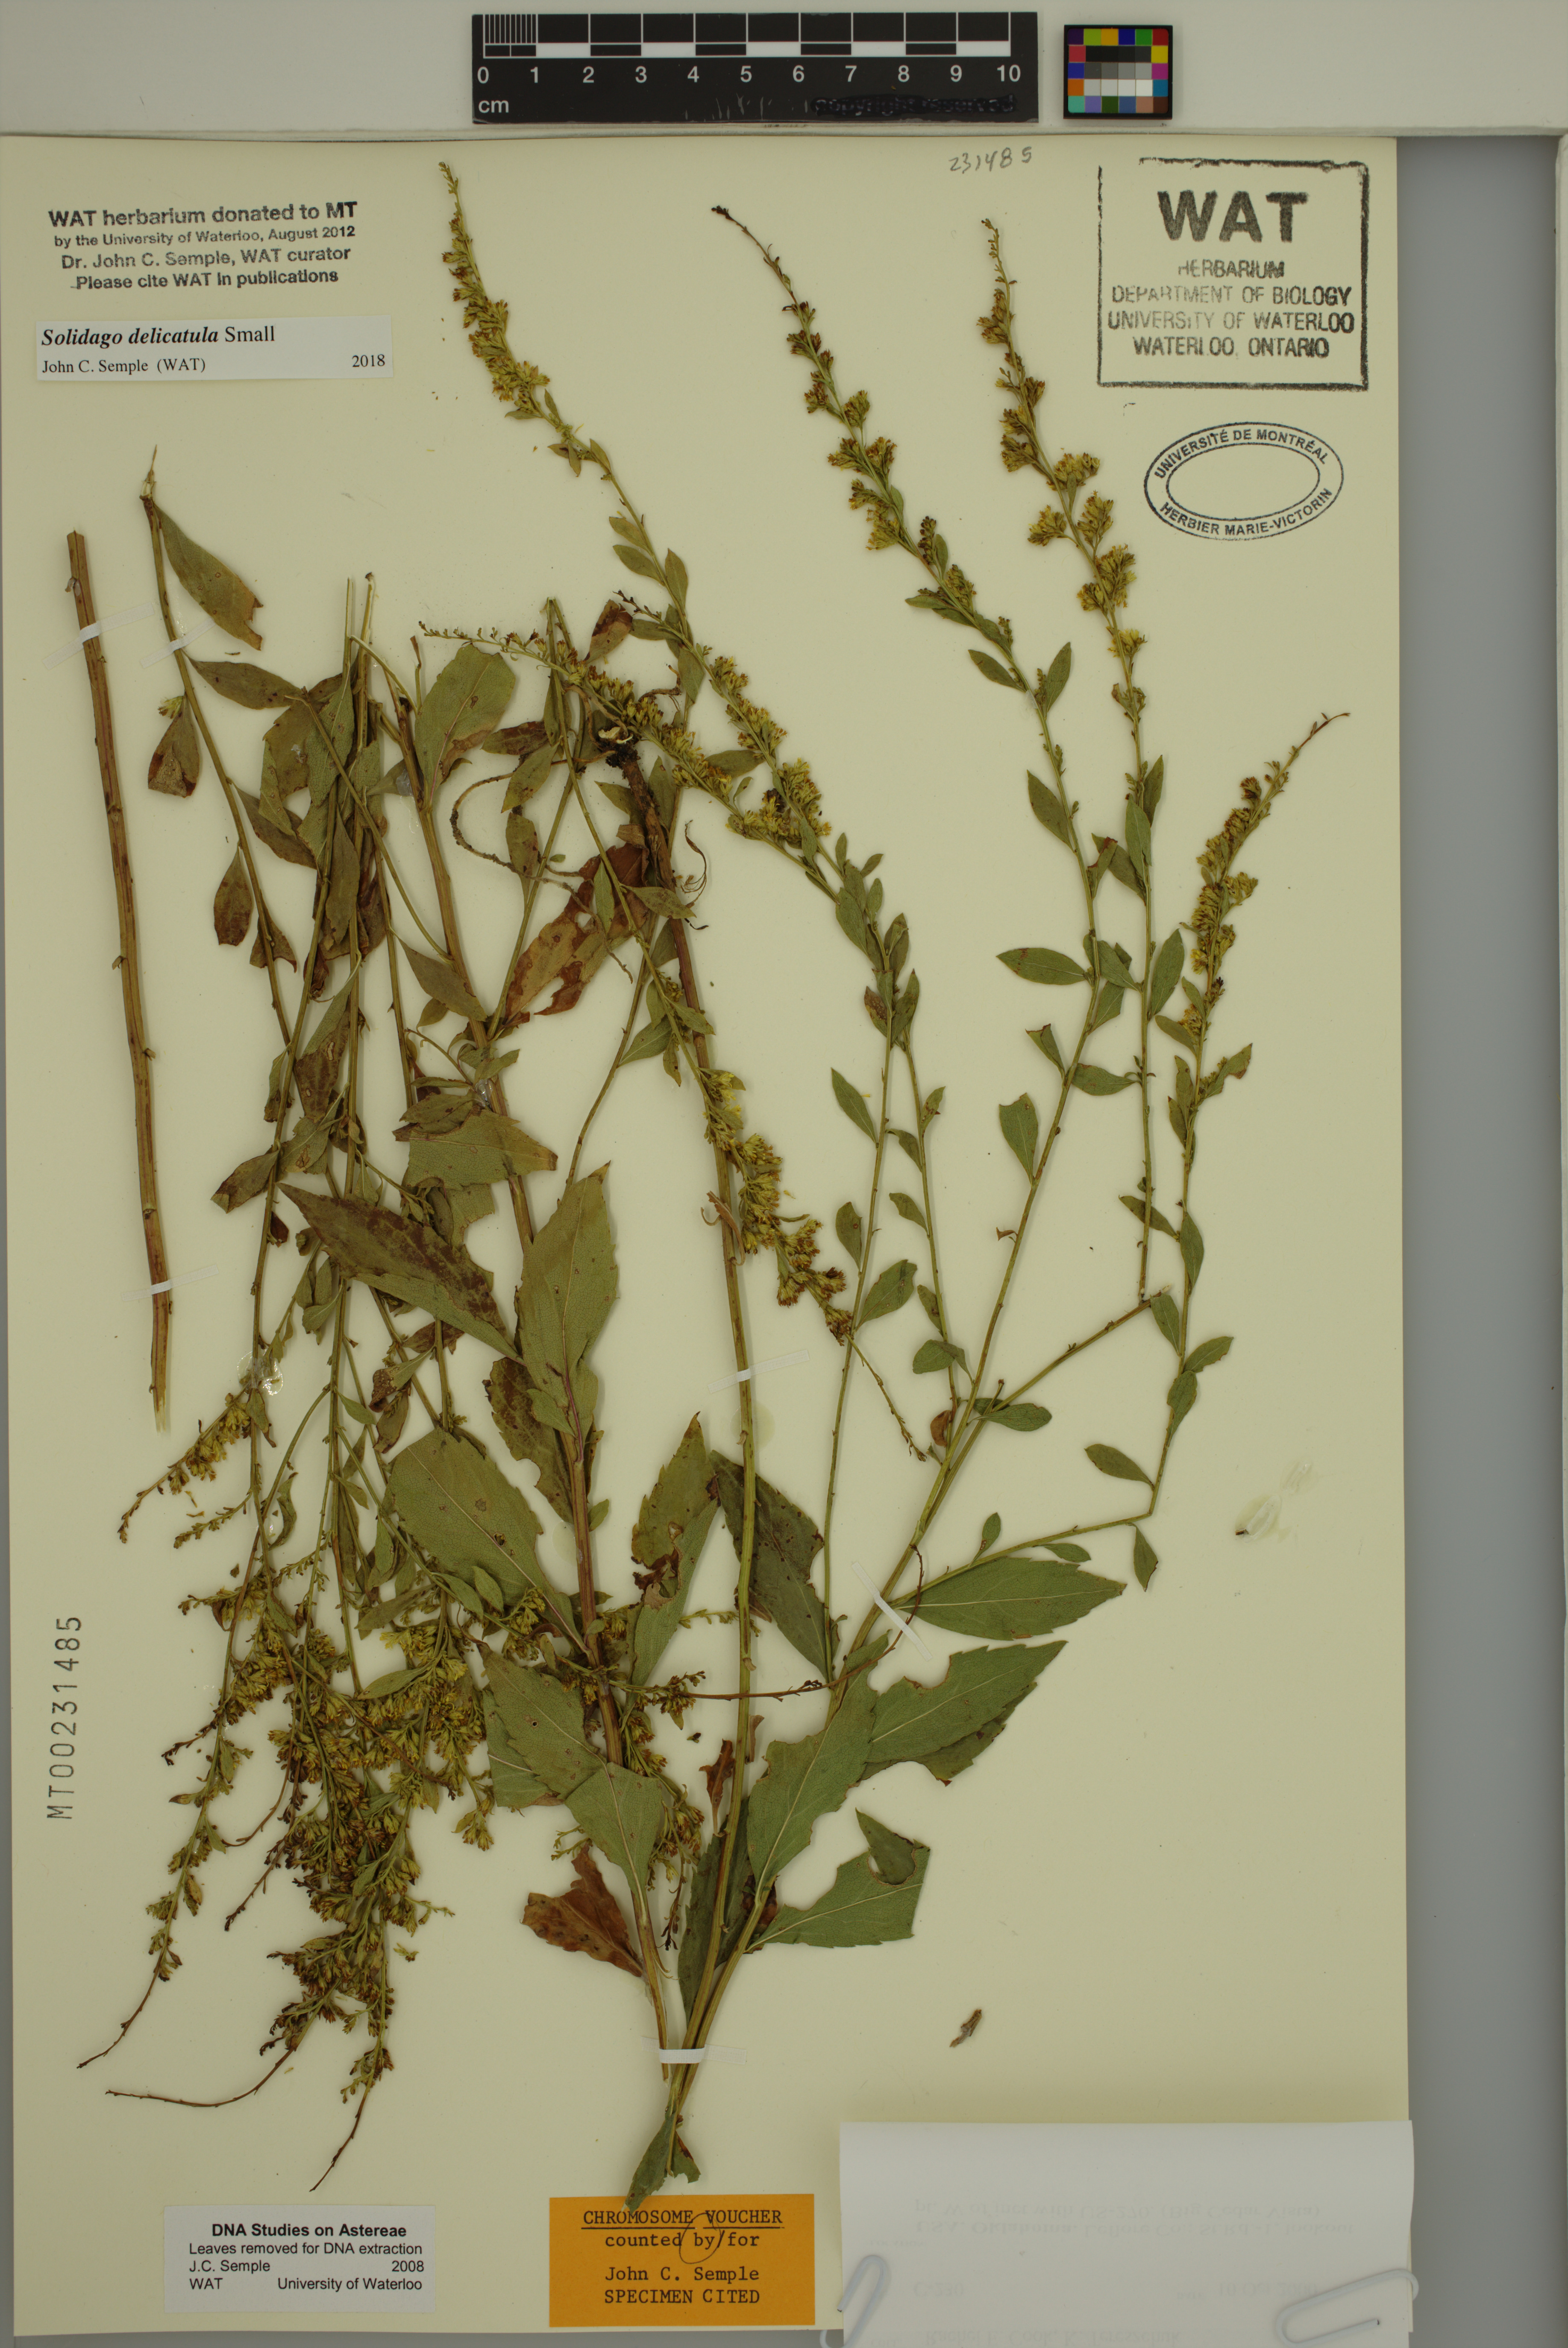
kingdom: Plantae
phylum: Tracheophyta
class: Magnoliopsida
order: Asterales
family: Asteraceae
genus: Solidago
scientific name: Solidago delicatula
